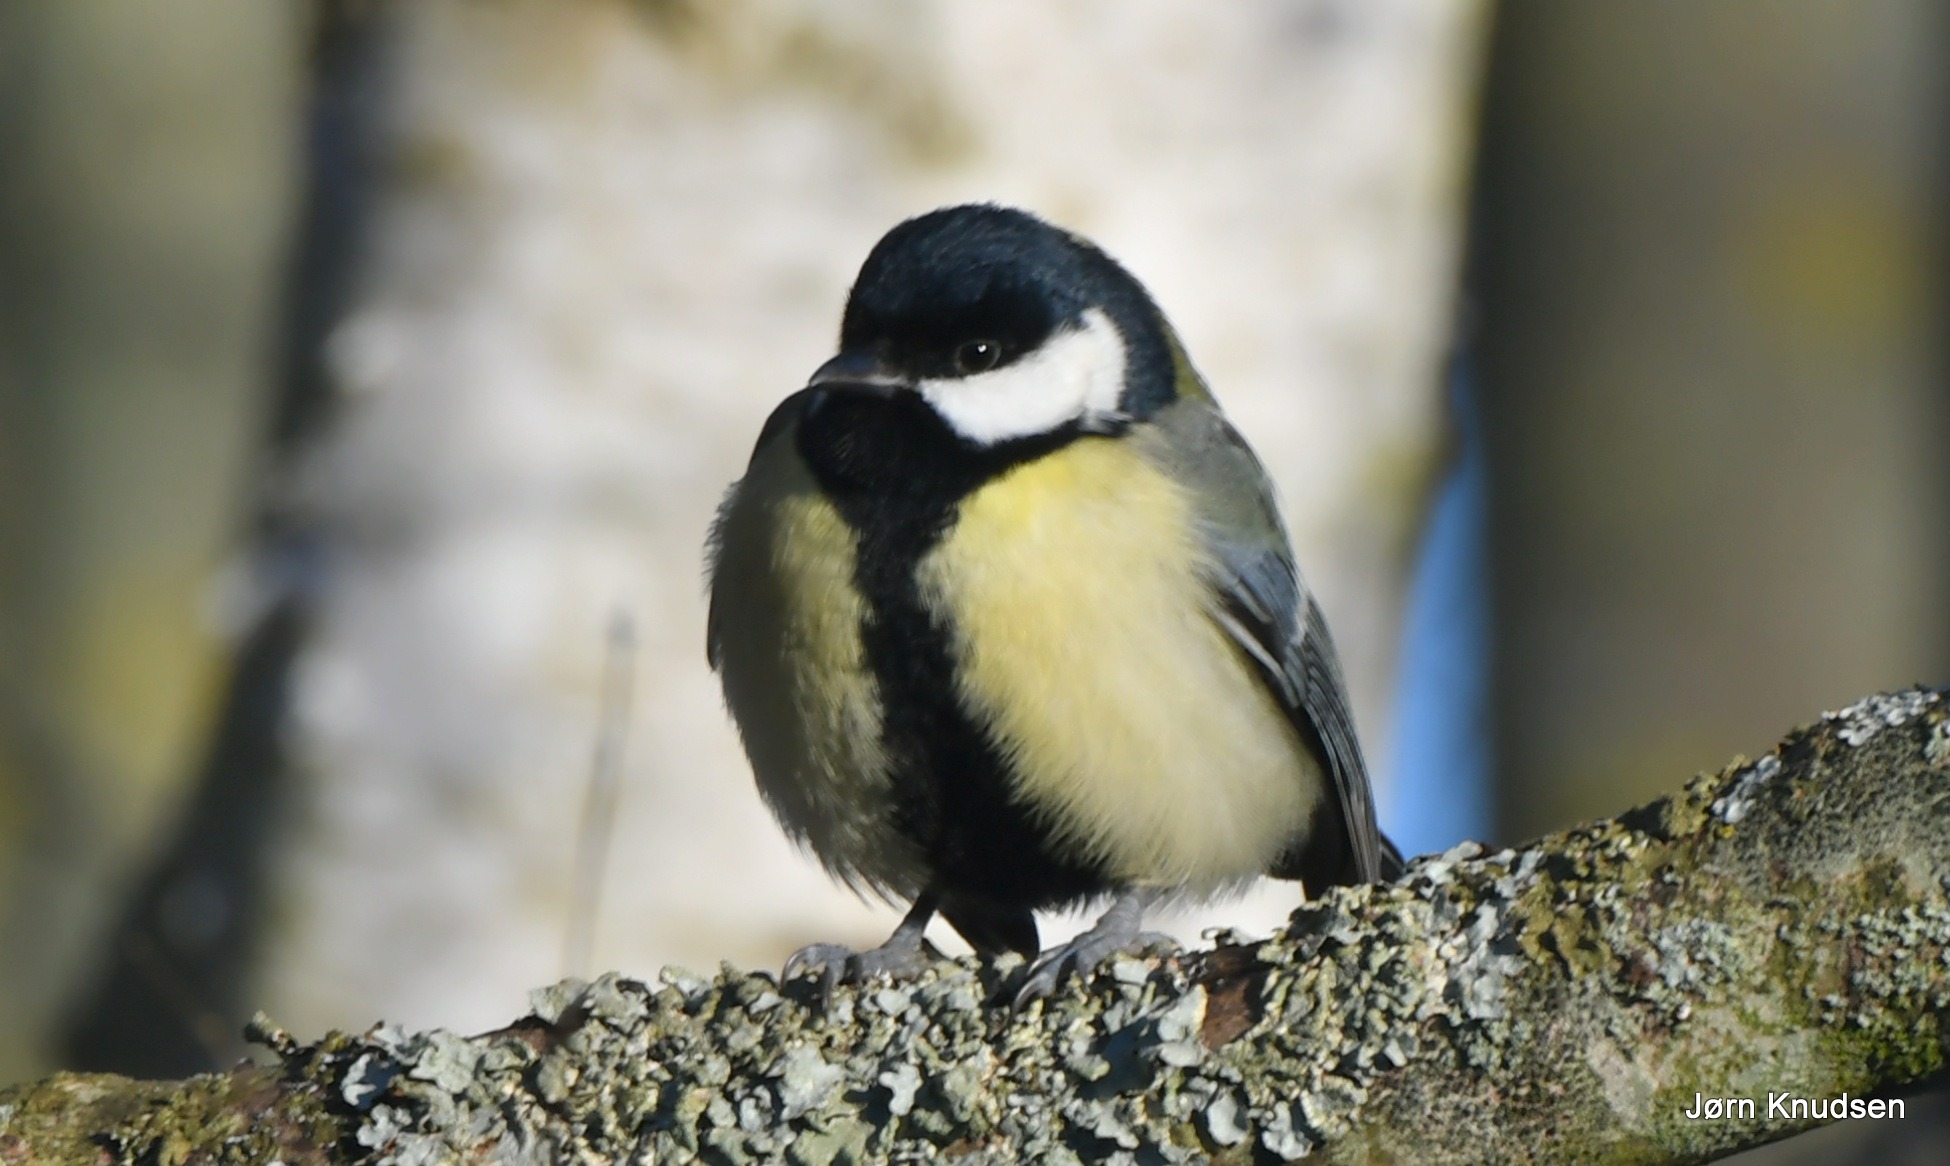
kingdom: Animalia
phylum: Chordata
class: Aves
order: Passeriformes
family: Paridae
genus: Parus
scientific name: Parus major
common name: Musvit
